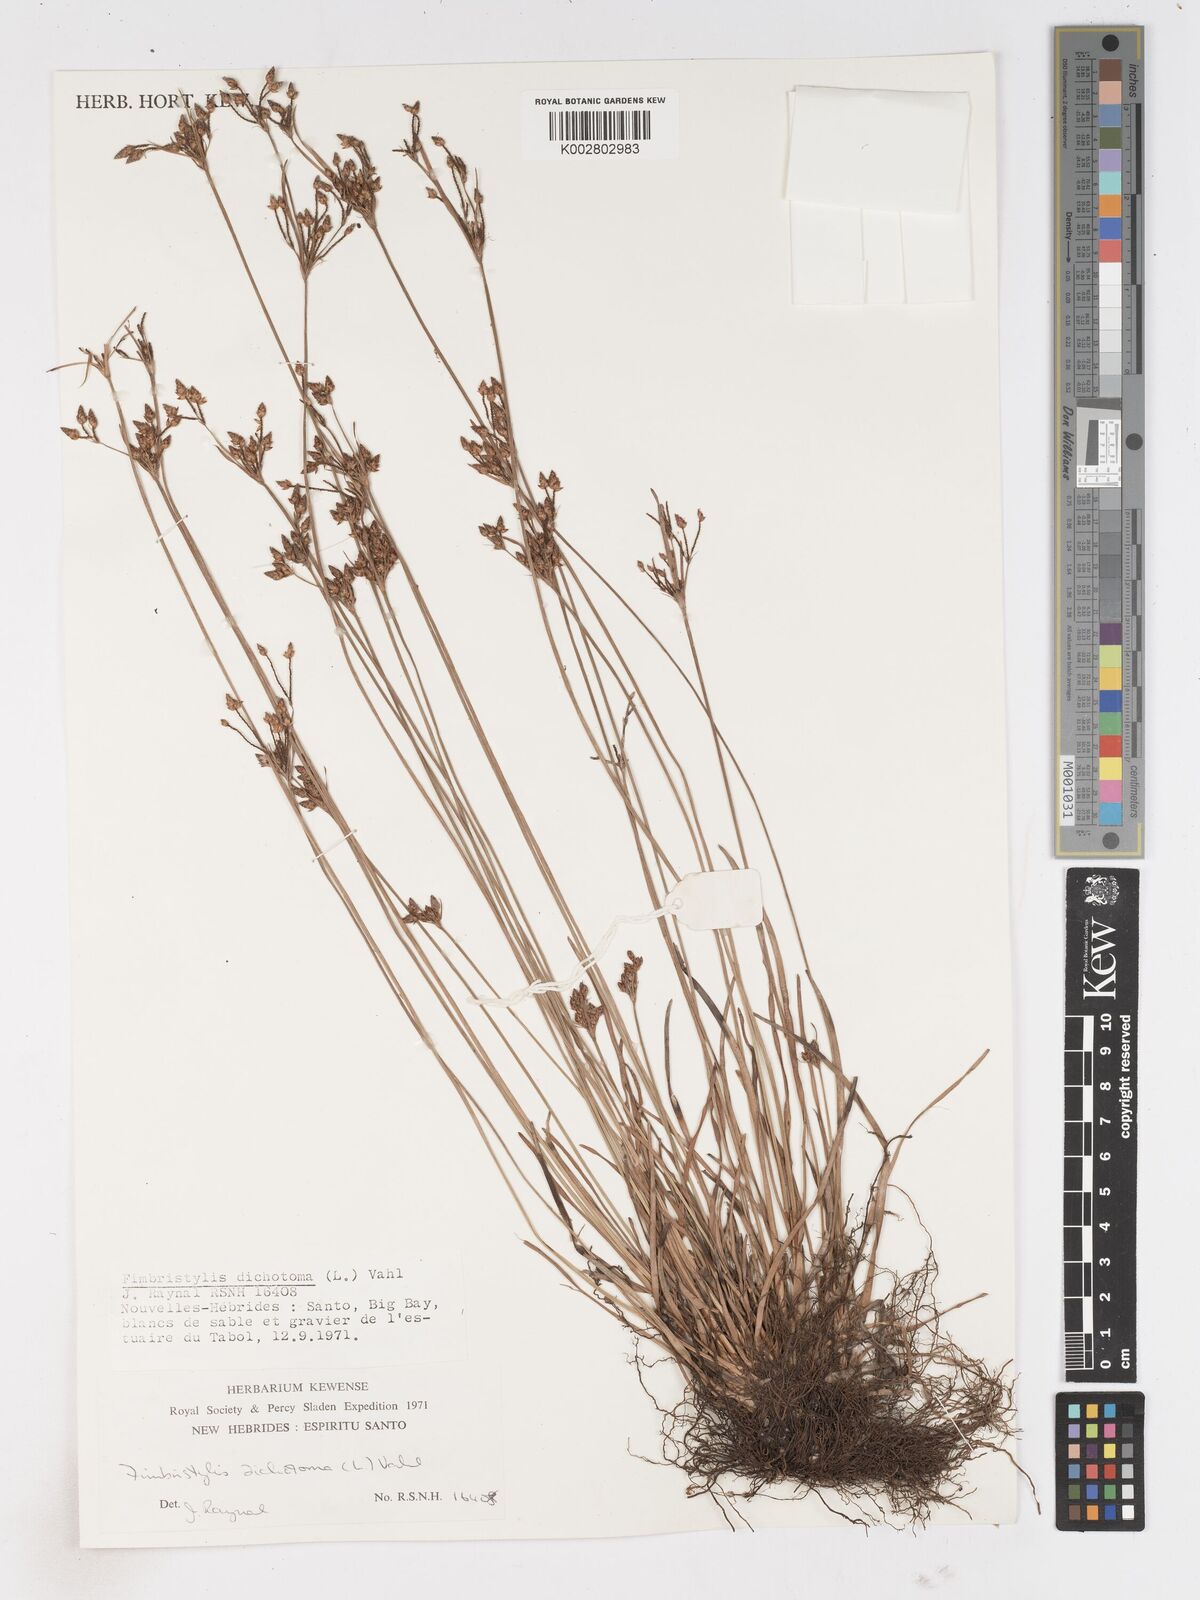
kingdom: Plantae
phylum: Tracheophyta
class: Liliopsida
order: Poales
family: Cyperaceae
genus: Fimbristylis
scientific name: Fimbristylis dichotoma
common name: Forked fimbry
